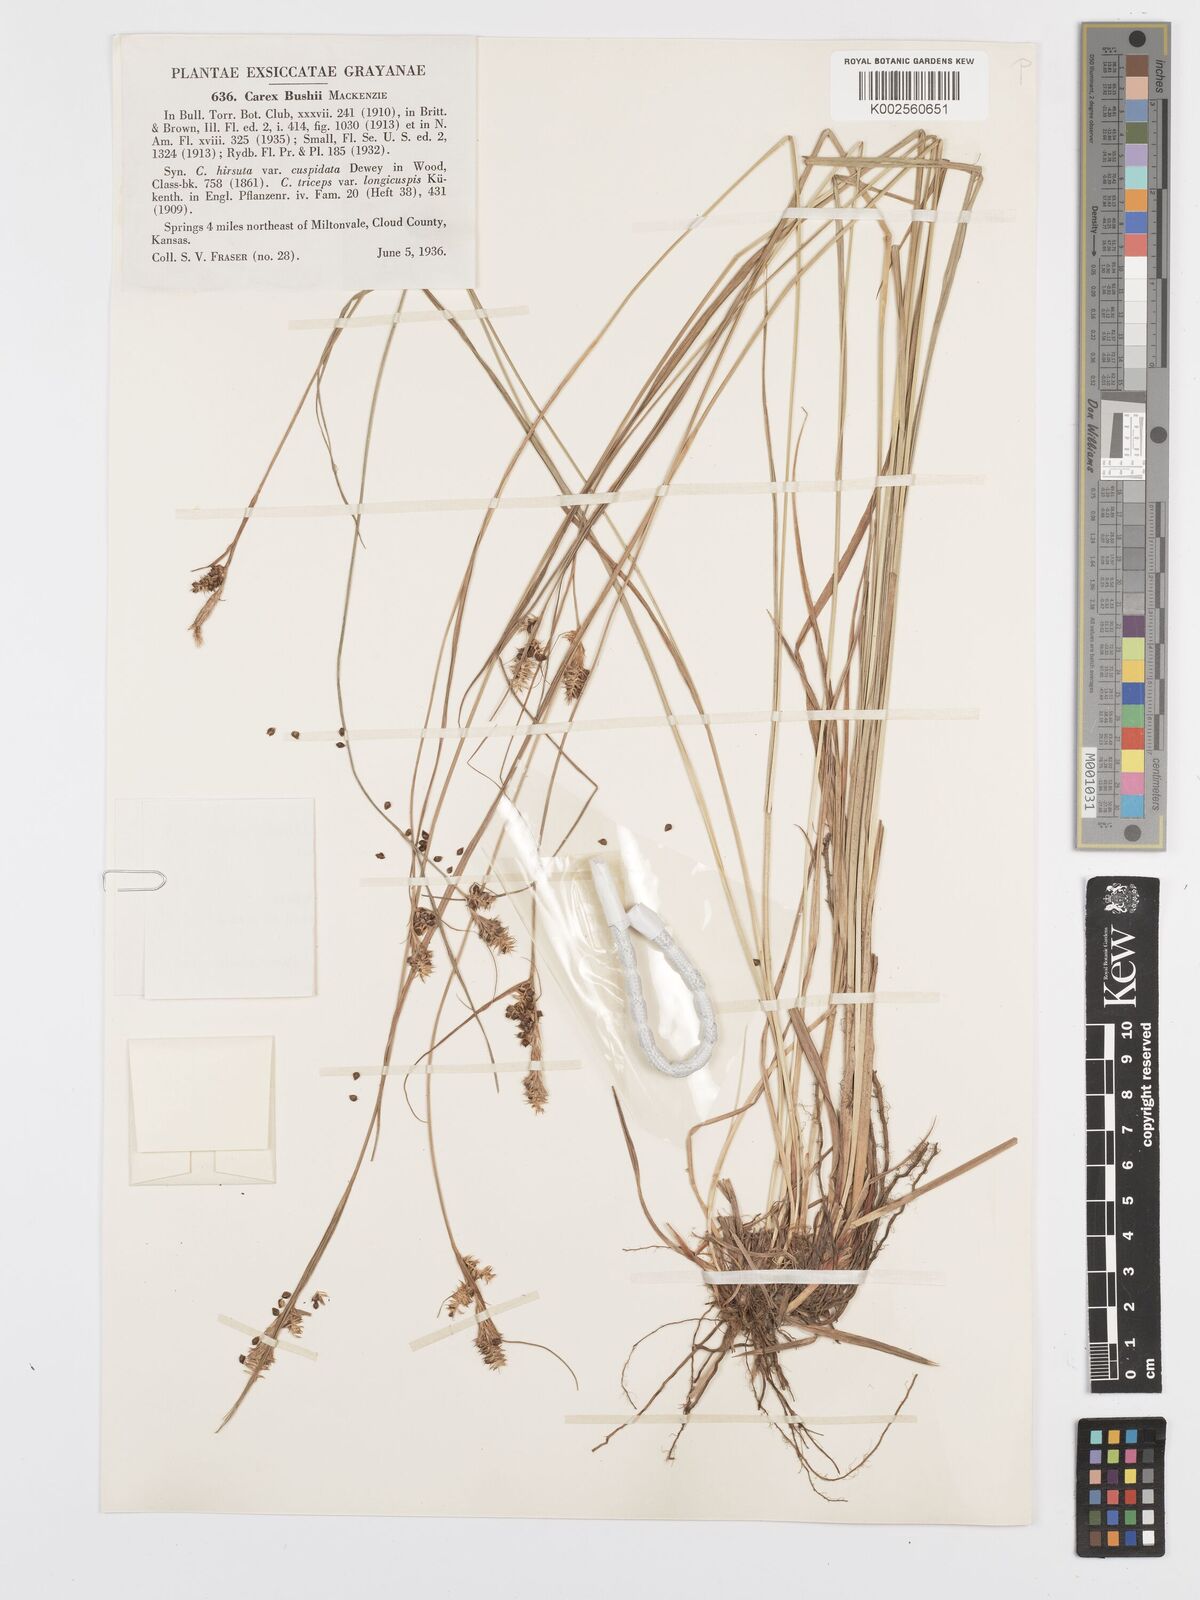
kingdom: Plantae
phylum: Tracheophyta
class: Liliopsida
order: Poales
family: Cyperaceae
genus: Carex
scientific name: Carex bushii
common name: Bush's sedge
